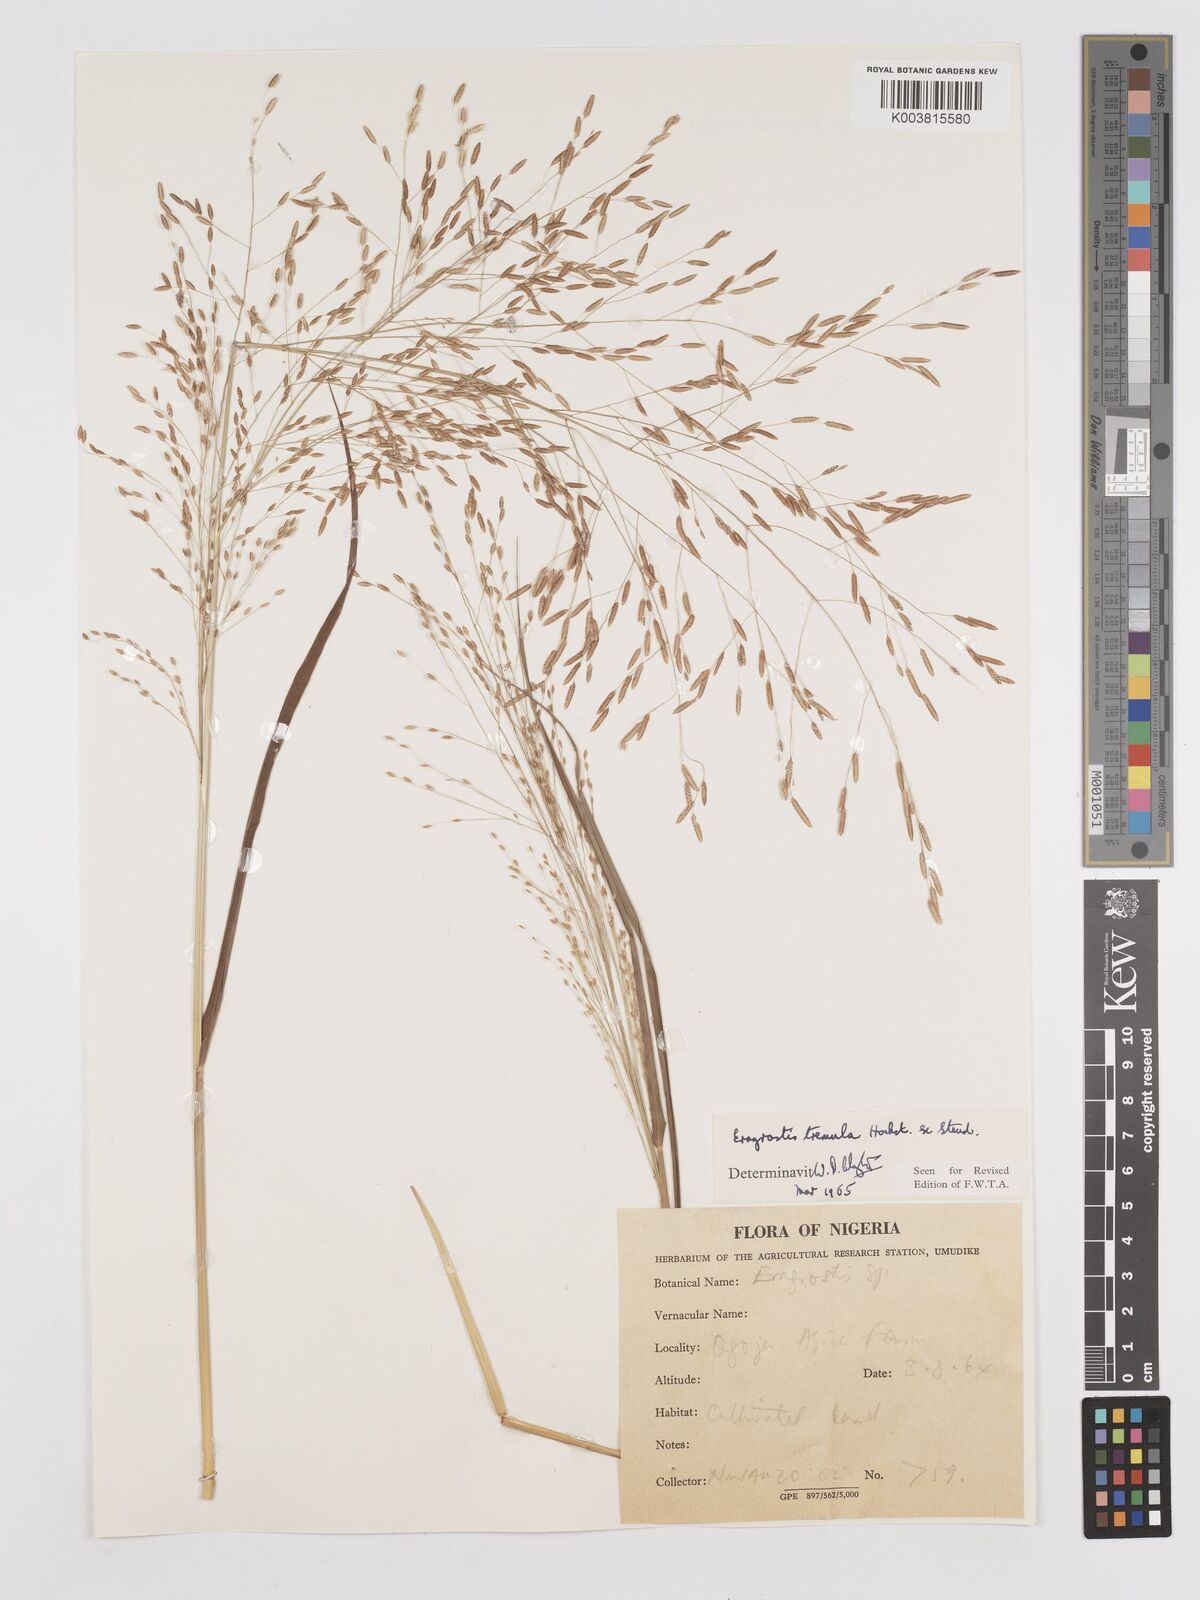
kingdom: Plantae
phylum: Tracheophyta
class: Liliopsida
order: Poales
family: Poaceae
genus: Eragrostis
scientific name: Eragrostis tremula
